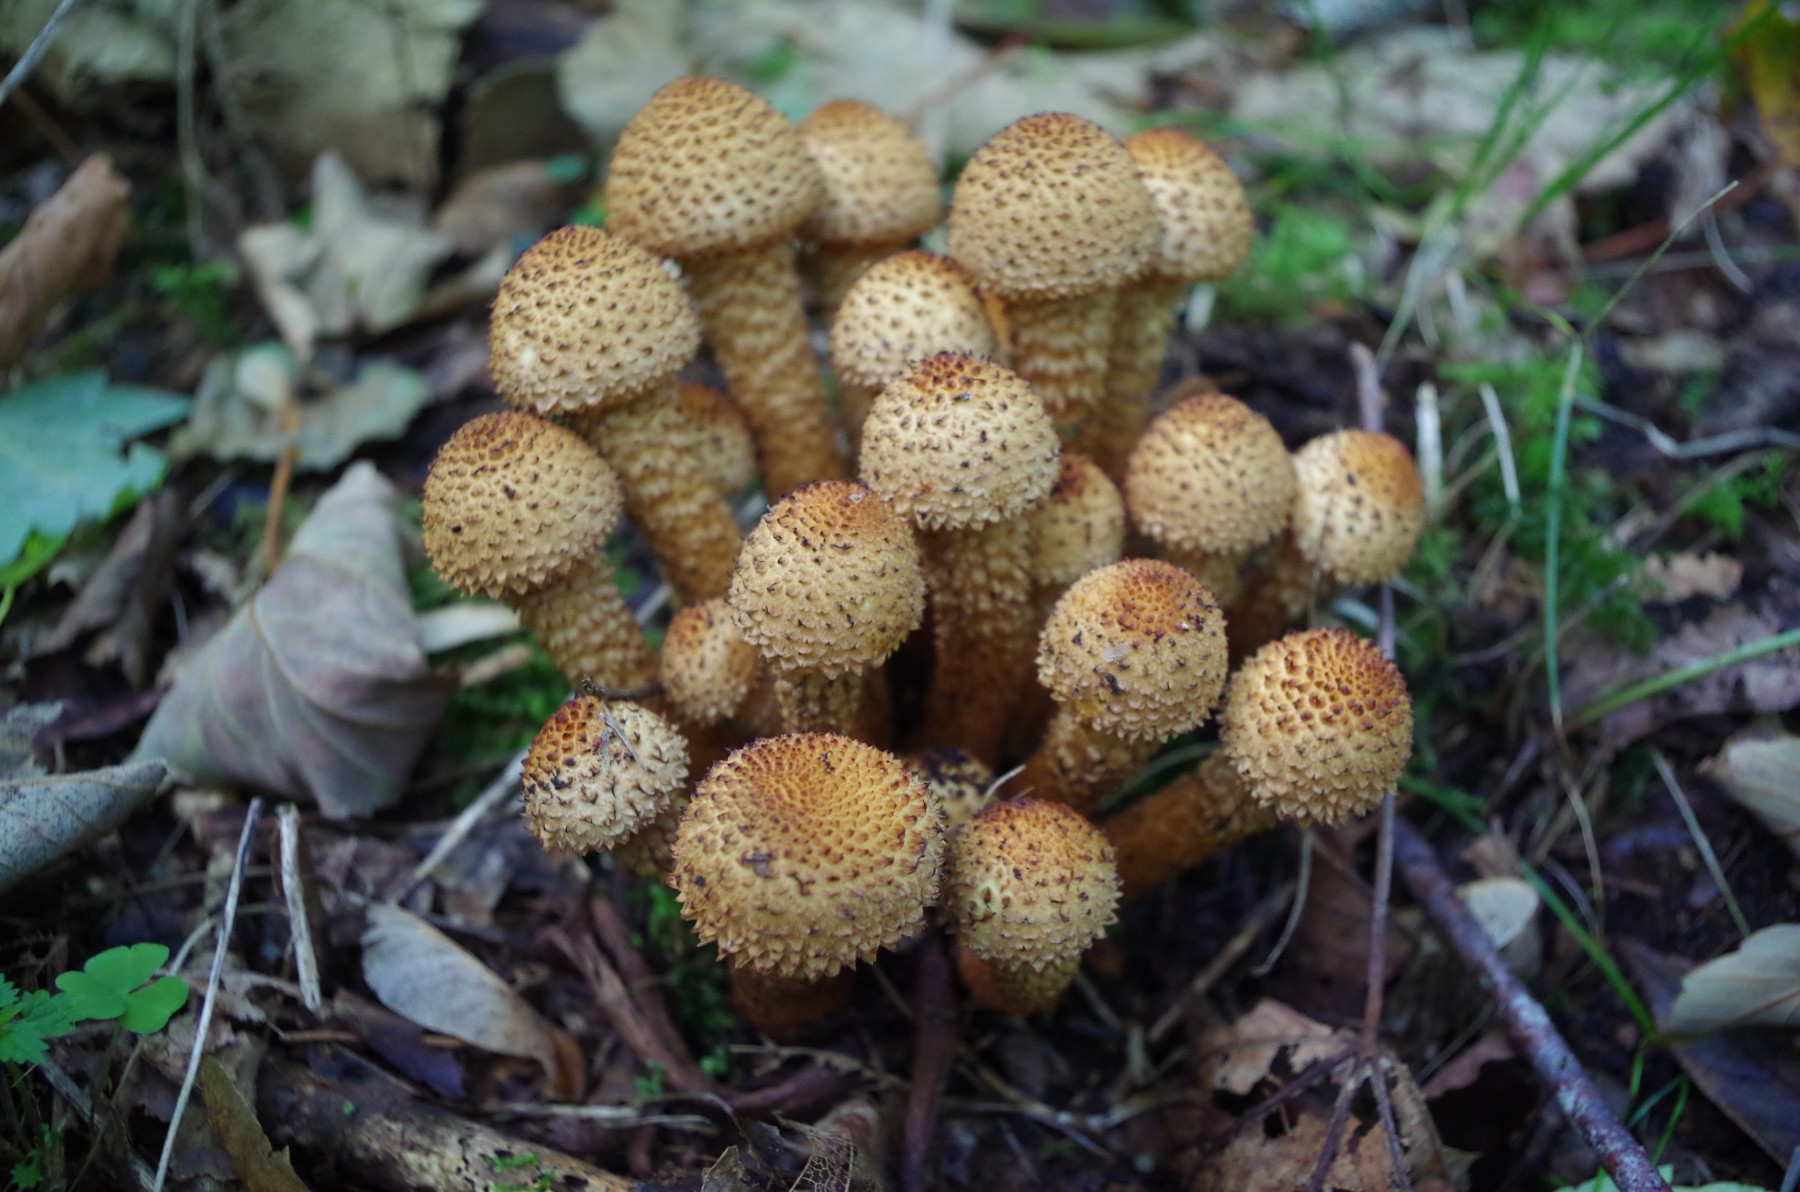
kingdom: Fungi
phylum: Basidiomycota
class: Agaricomycetes
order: Agaricales
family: Strophariaceae
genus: Pholiota
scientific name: Pholiota squarrosa
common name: krumskællet skælhat
